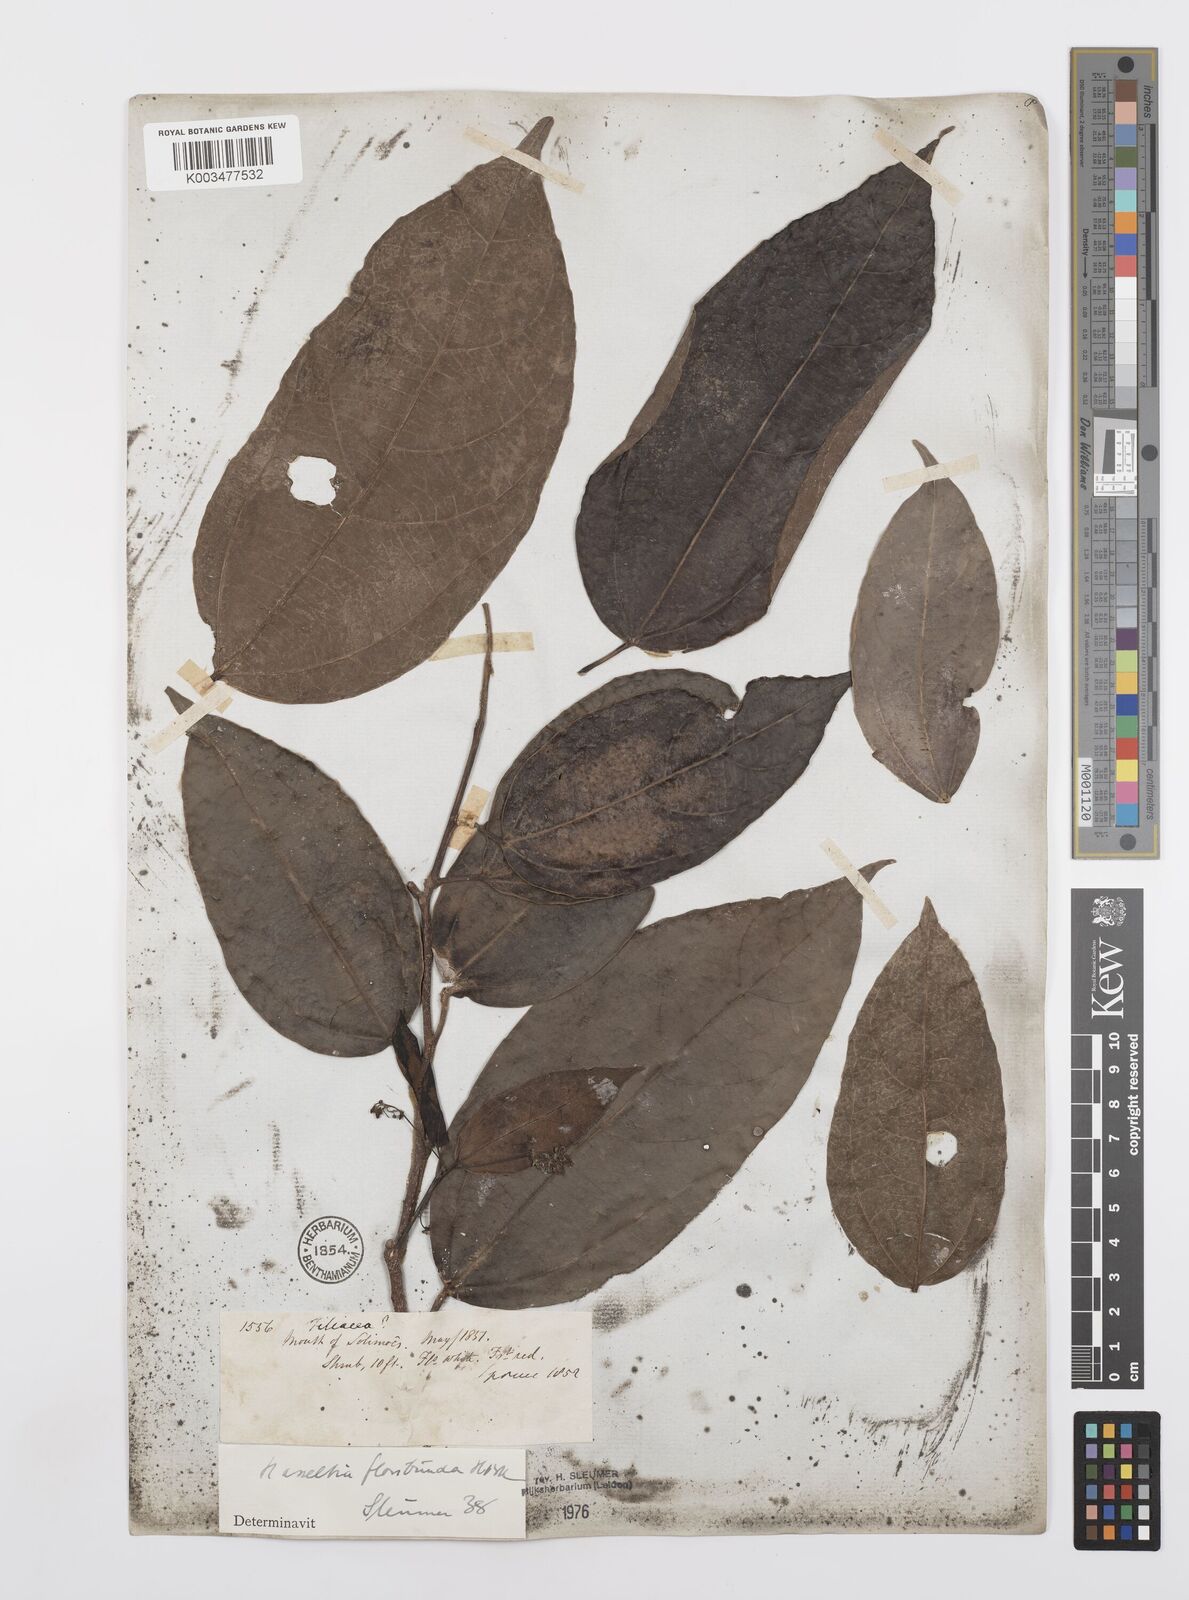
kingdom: Plantae
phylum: Tracheophyta
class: Magnoliopsida
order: Malpighiales
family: Salicaceae
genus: Hasseltia
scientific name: Hasseltia floribunda
